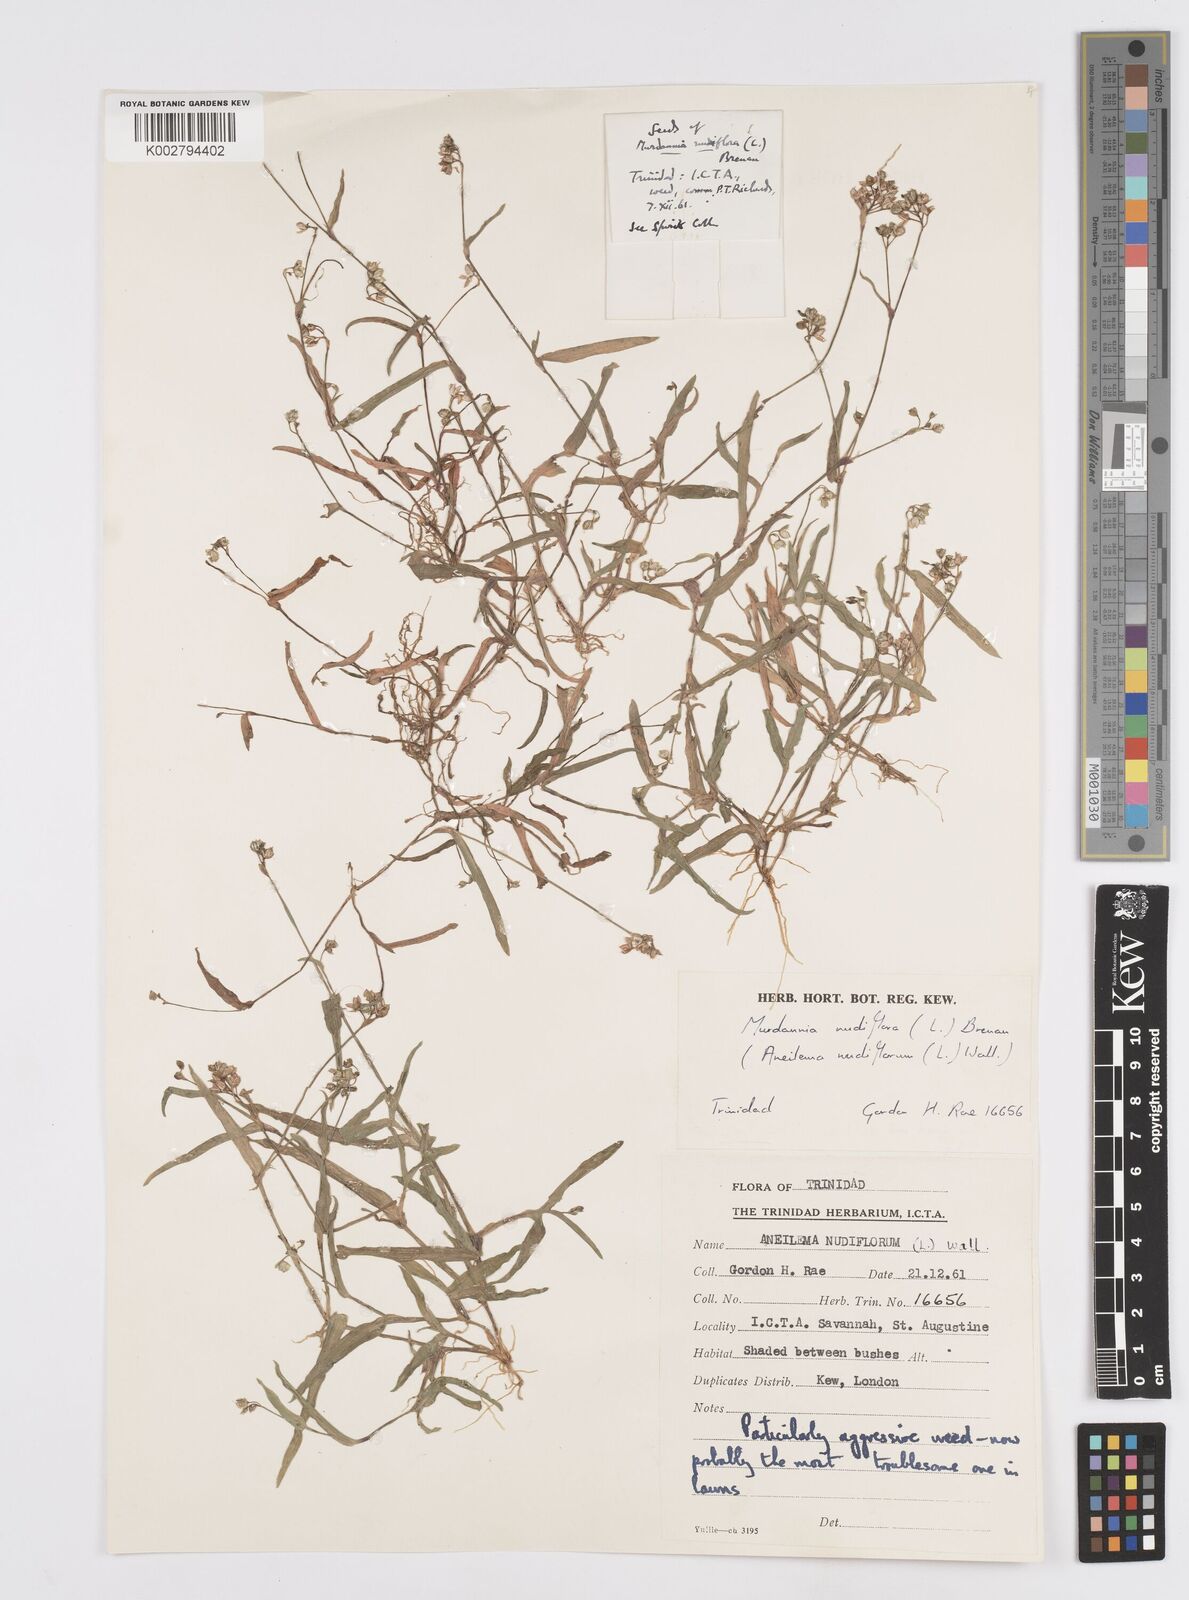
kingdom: Plantae
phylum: Tracheophyta
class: Liliopsida
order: Commelinales
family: Commelinaceae
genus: Murdannia
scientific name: Murdannia nudiflora
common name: Nakedstem dewflower
